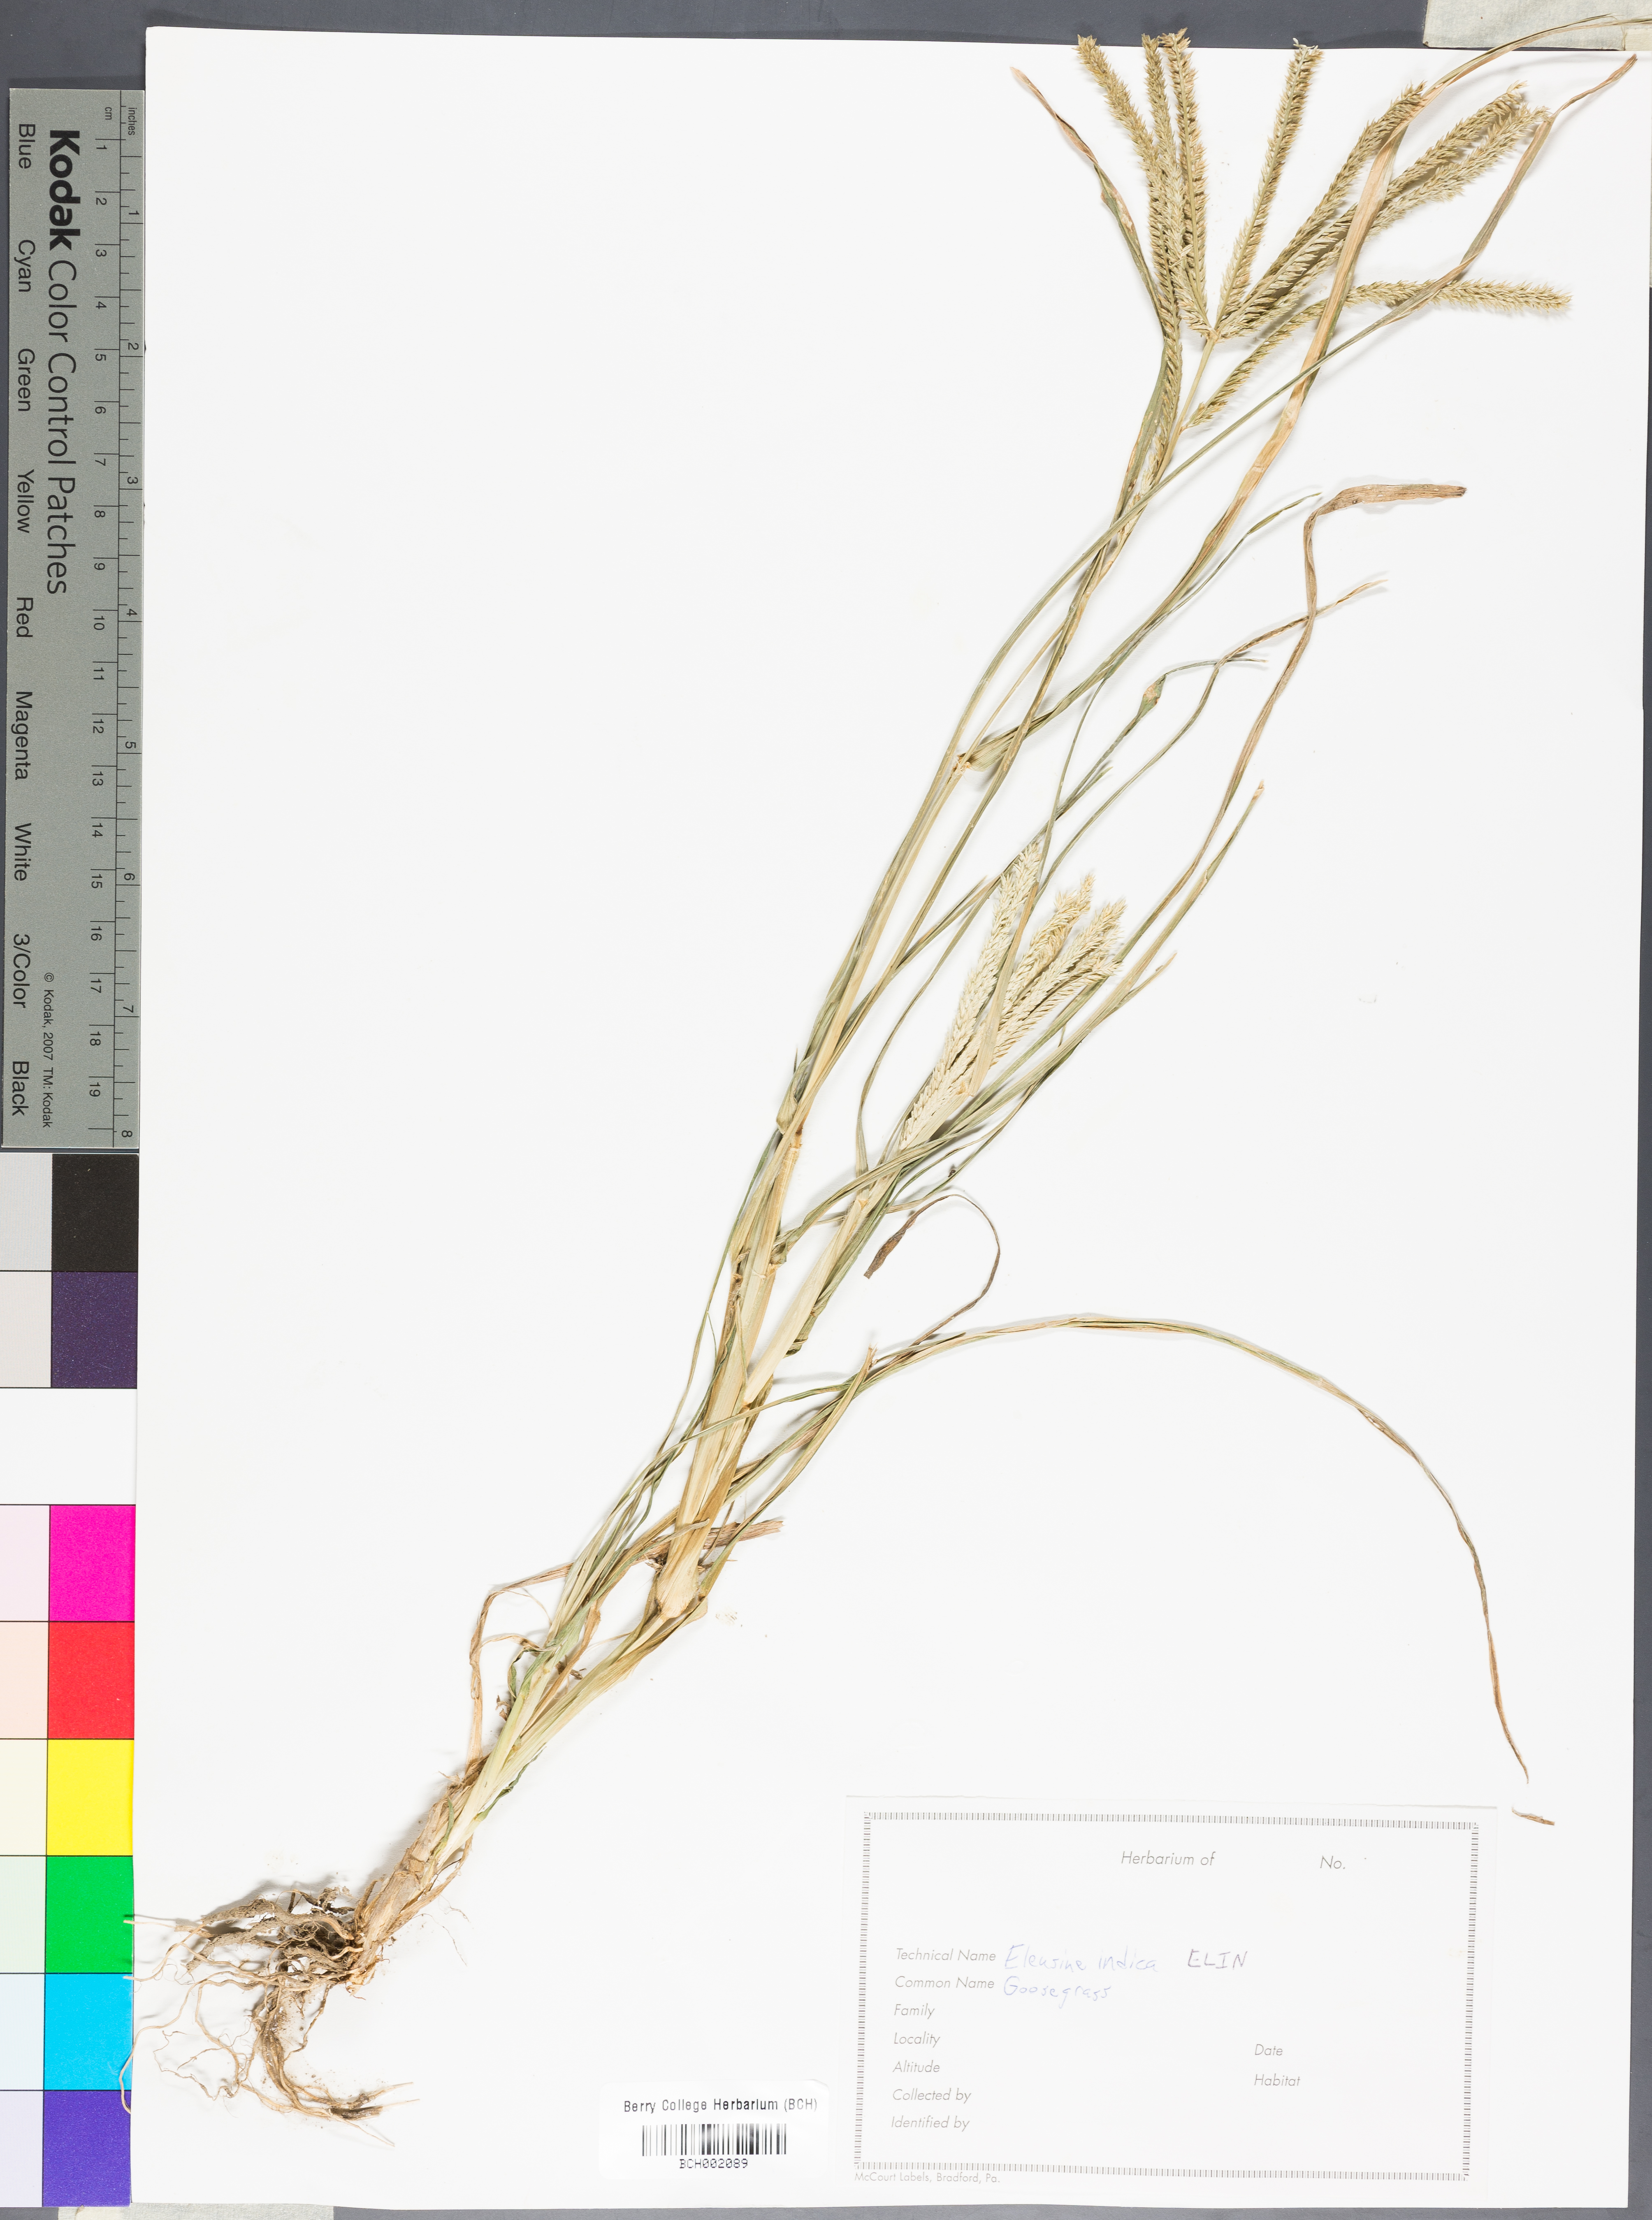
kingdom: Plantae
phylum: Tracheophyta
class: Liliopsida
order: Poales
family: Poaceae
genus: Eleusine
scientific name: Eleusine indica
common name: Yard-grass
